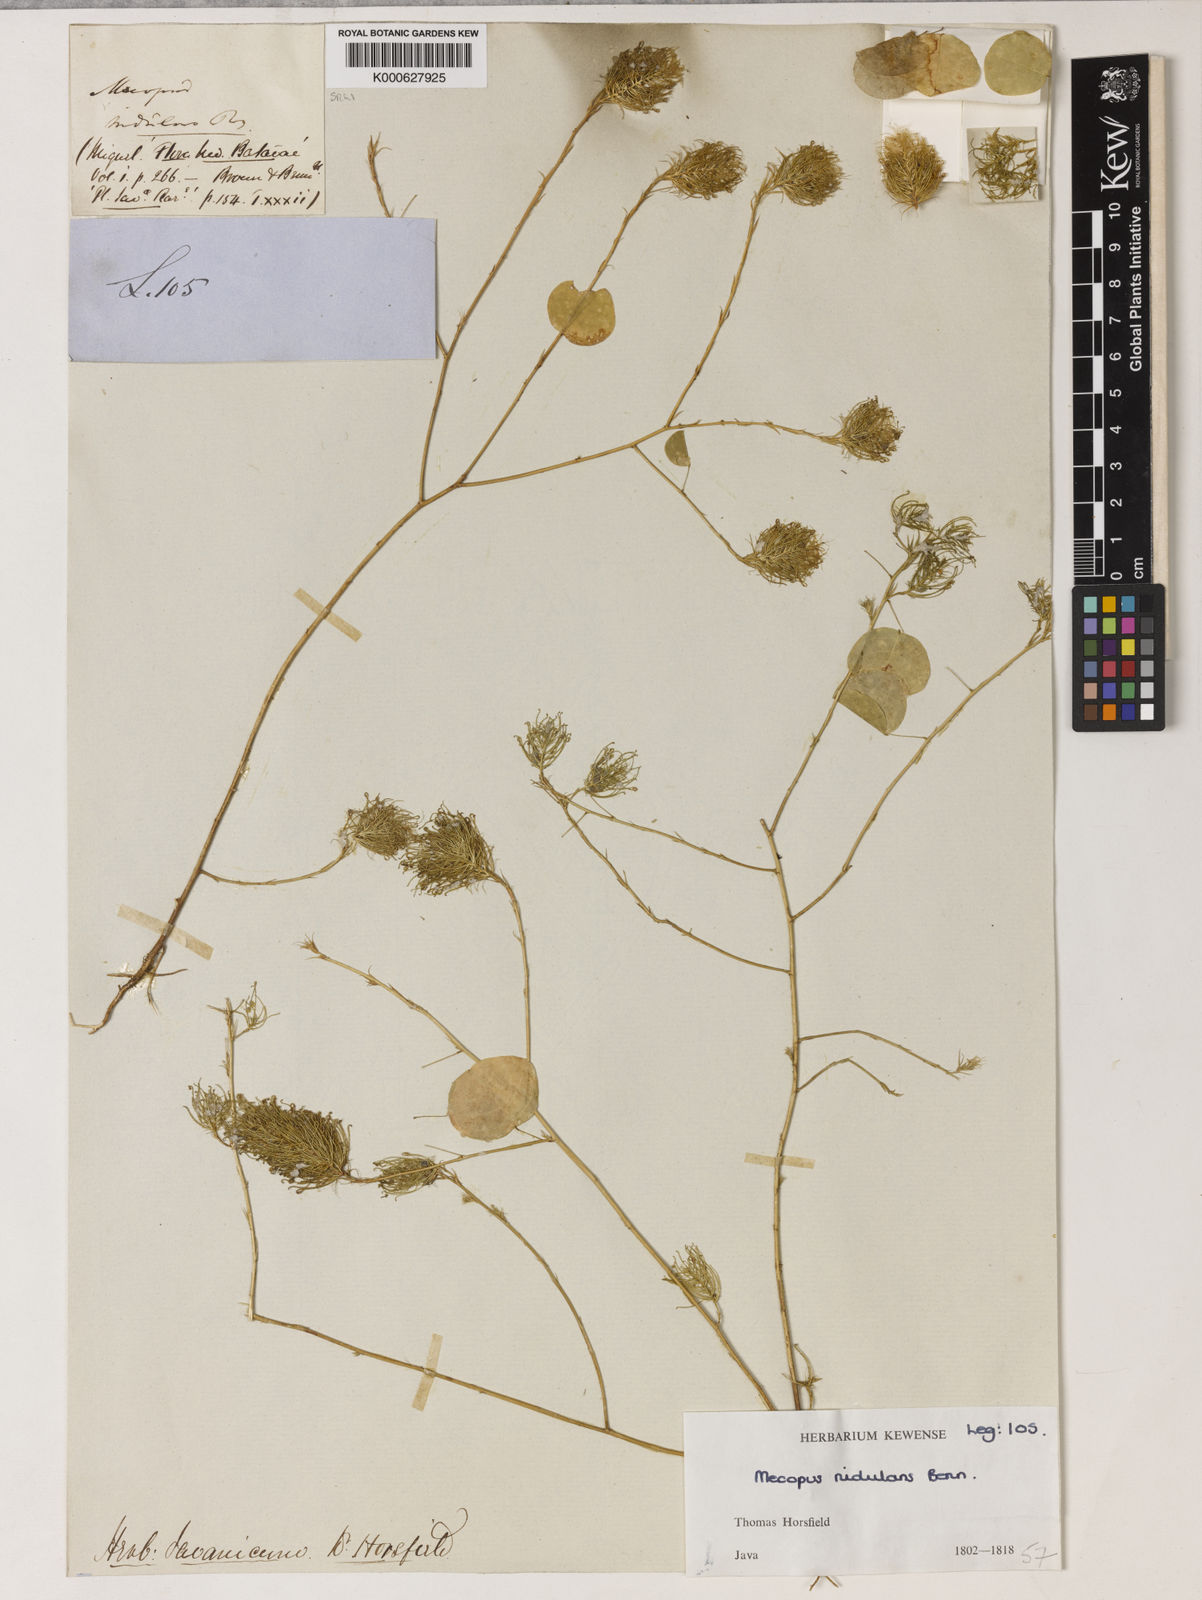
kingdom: Plantae
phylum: Tracheophyta
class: Magnoliopsida
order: Fabales
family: Fabaceae
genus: Mecopus
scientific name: Mecopus nidulans
